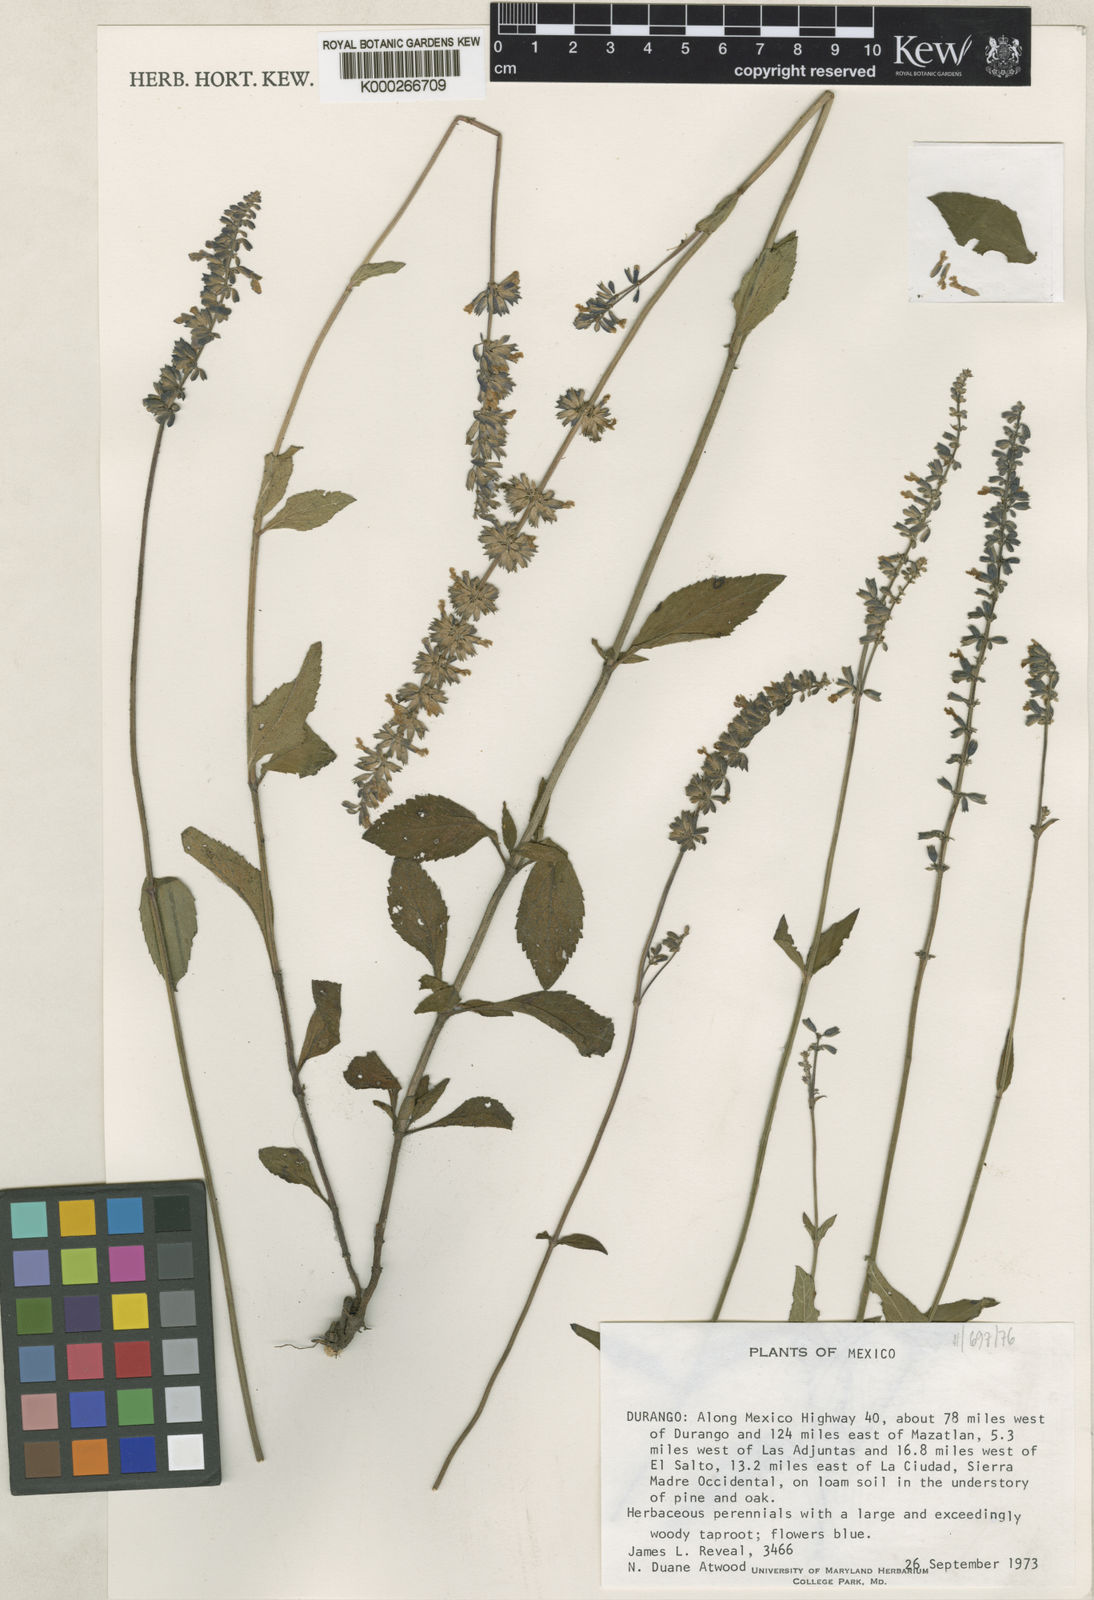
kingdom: Plantae
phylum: Tracheophyta
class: Magnoliopsida
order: Lamiales
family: Lamiaceae
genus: Salvia
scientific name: Salvia lavanduloides
